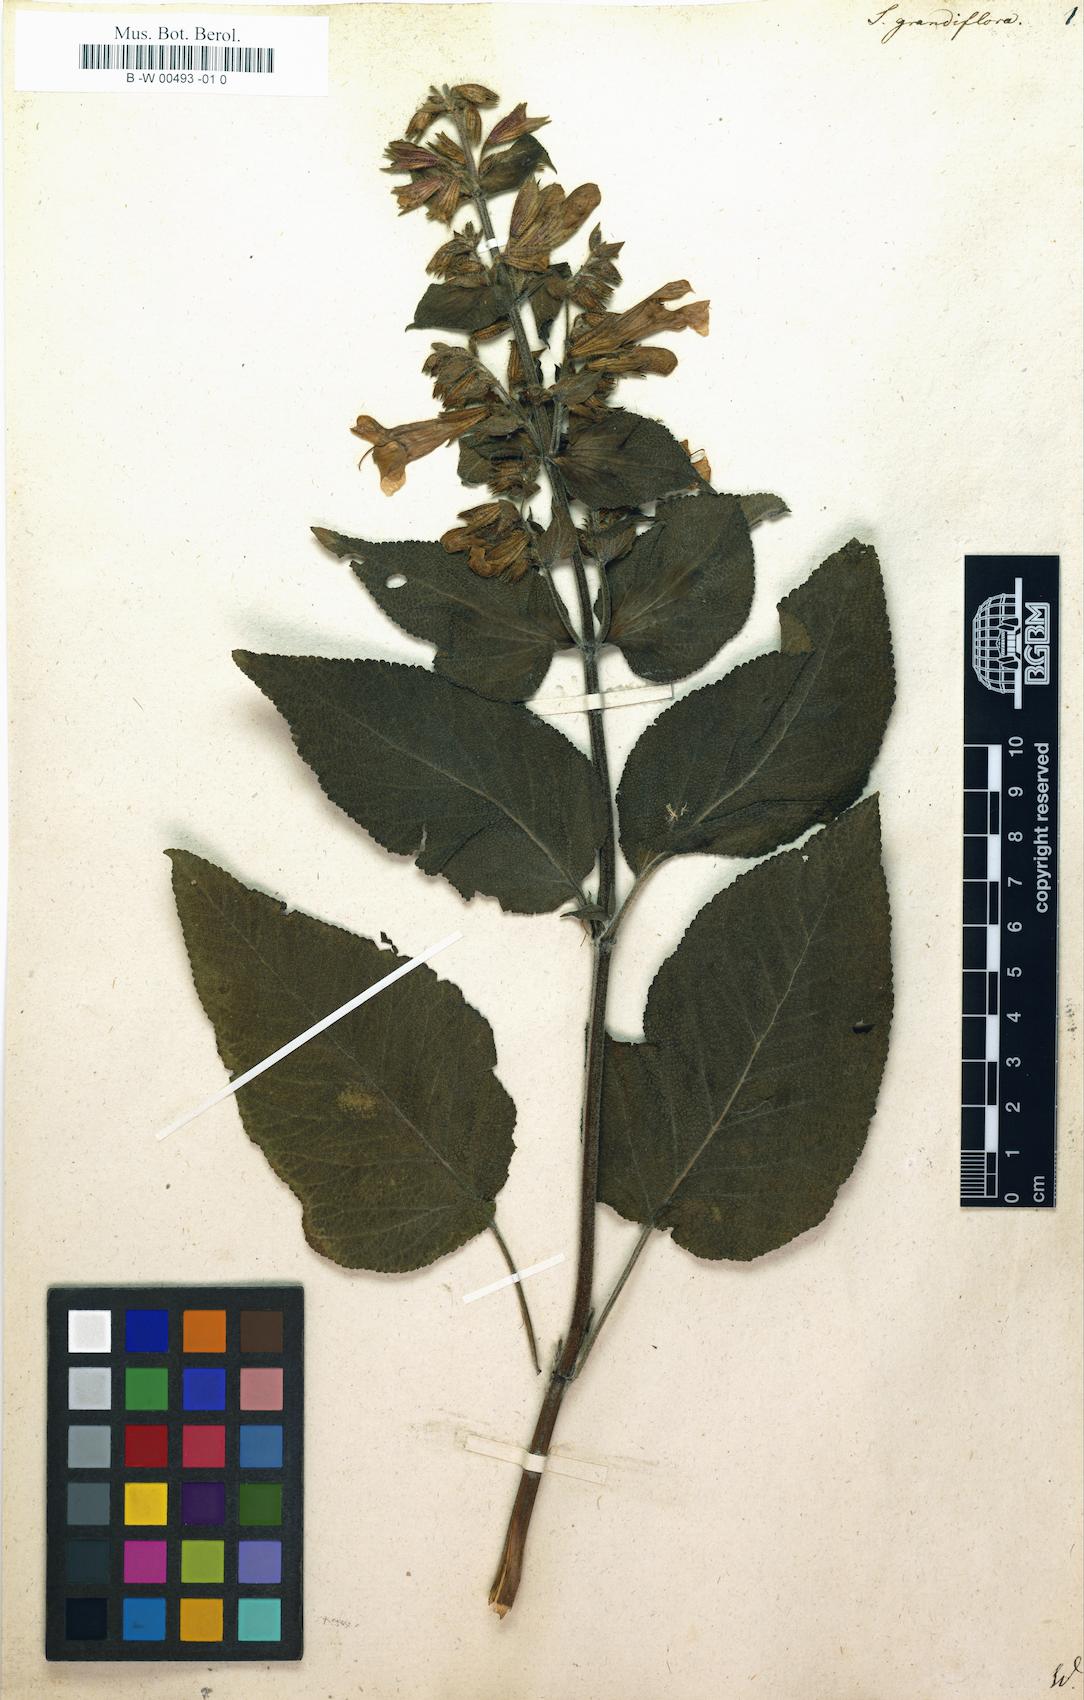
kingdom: Plantae
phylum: Tracheophyta
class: Magnoliopsida
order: Lamiales
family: Lamiaceae
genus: Salvia
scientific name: Salvia grandiflora
